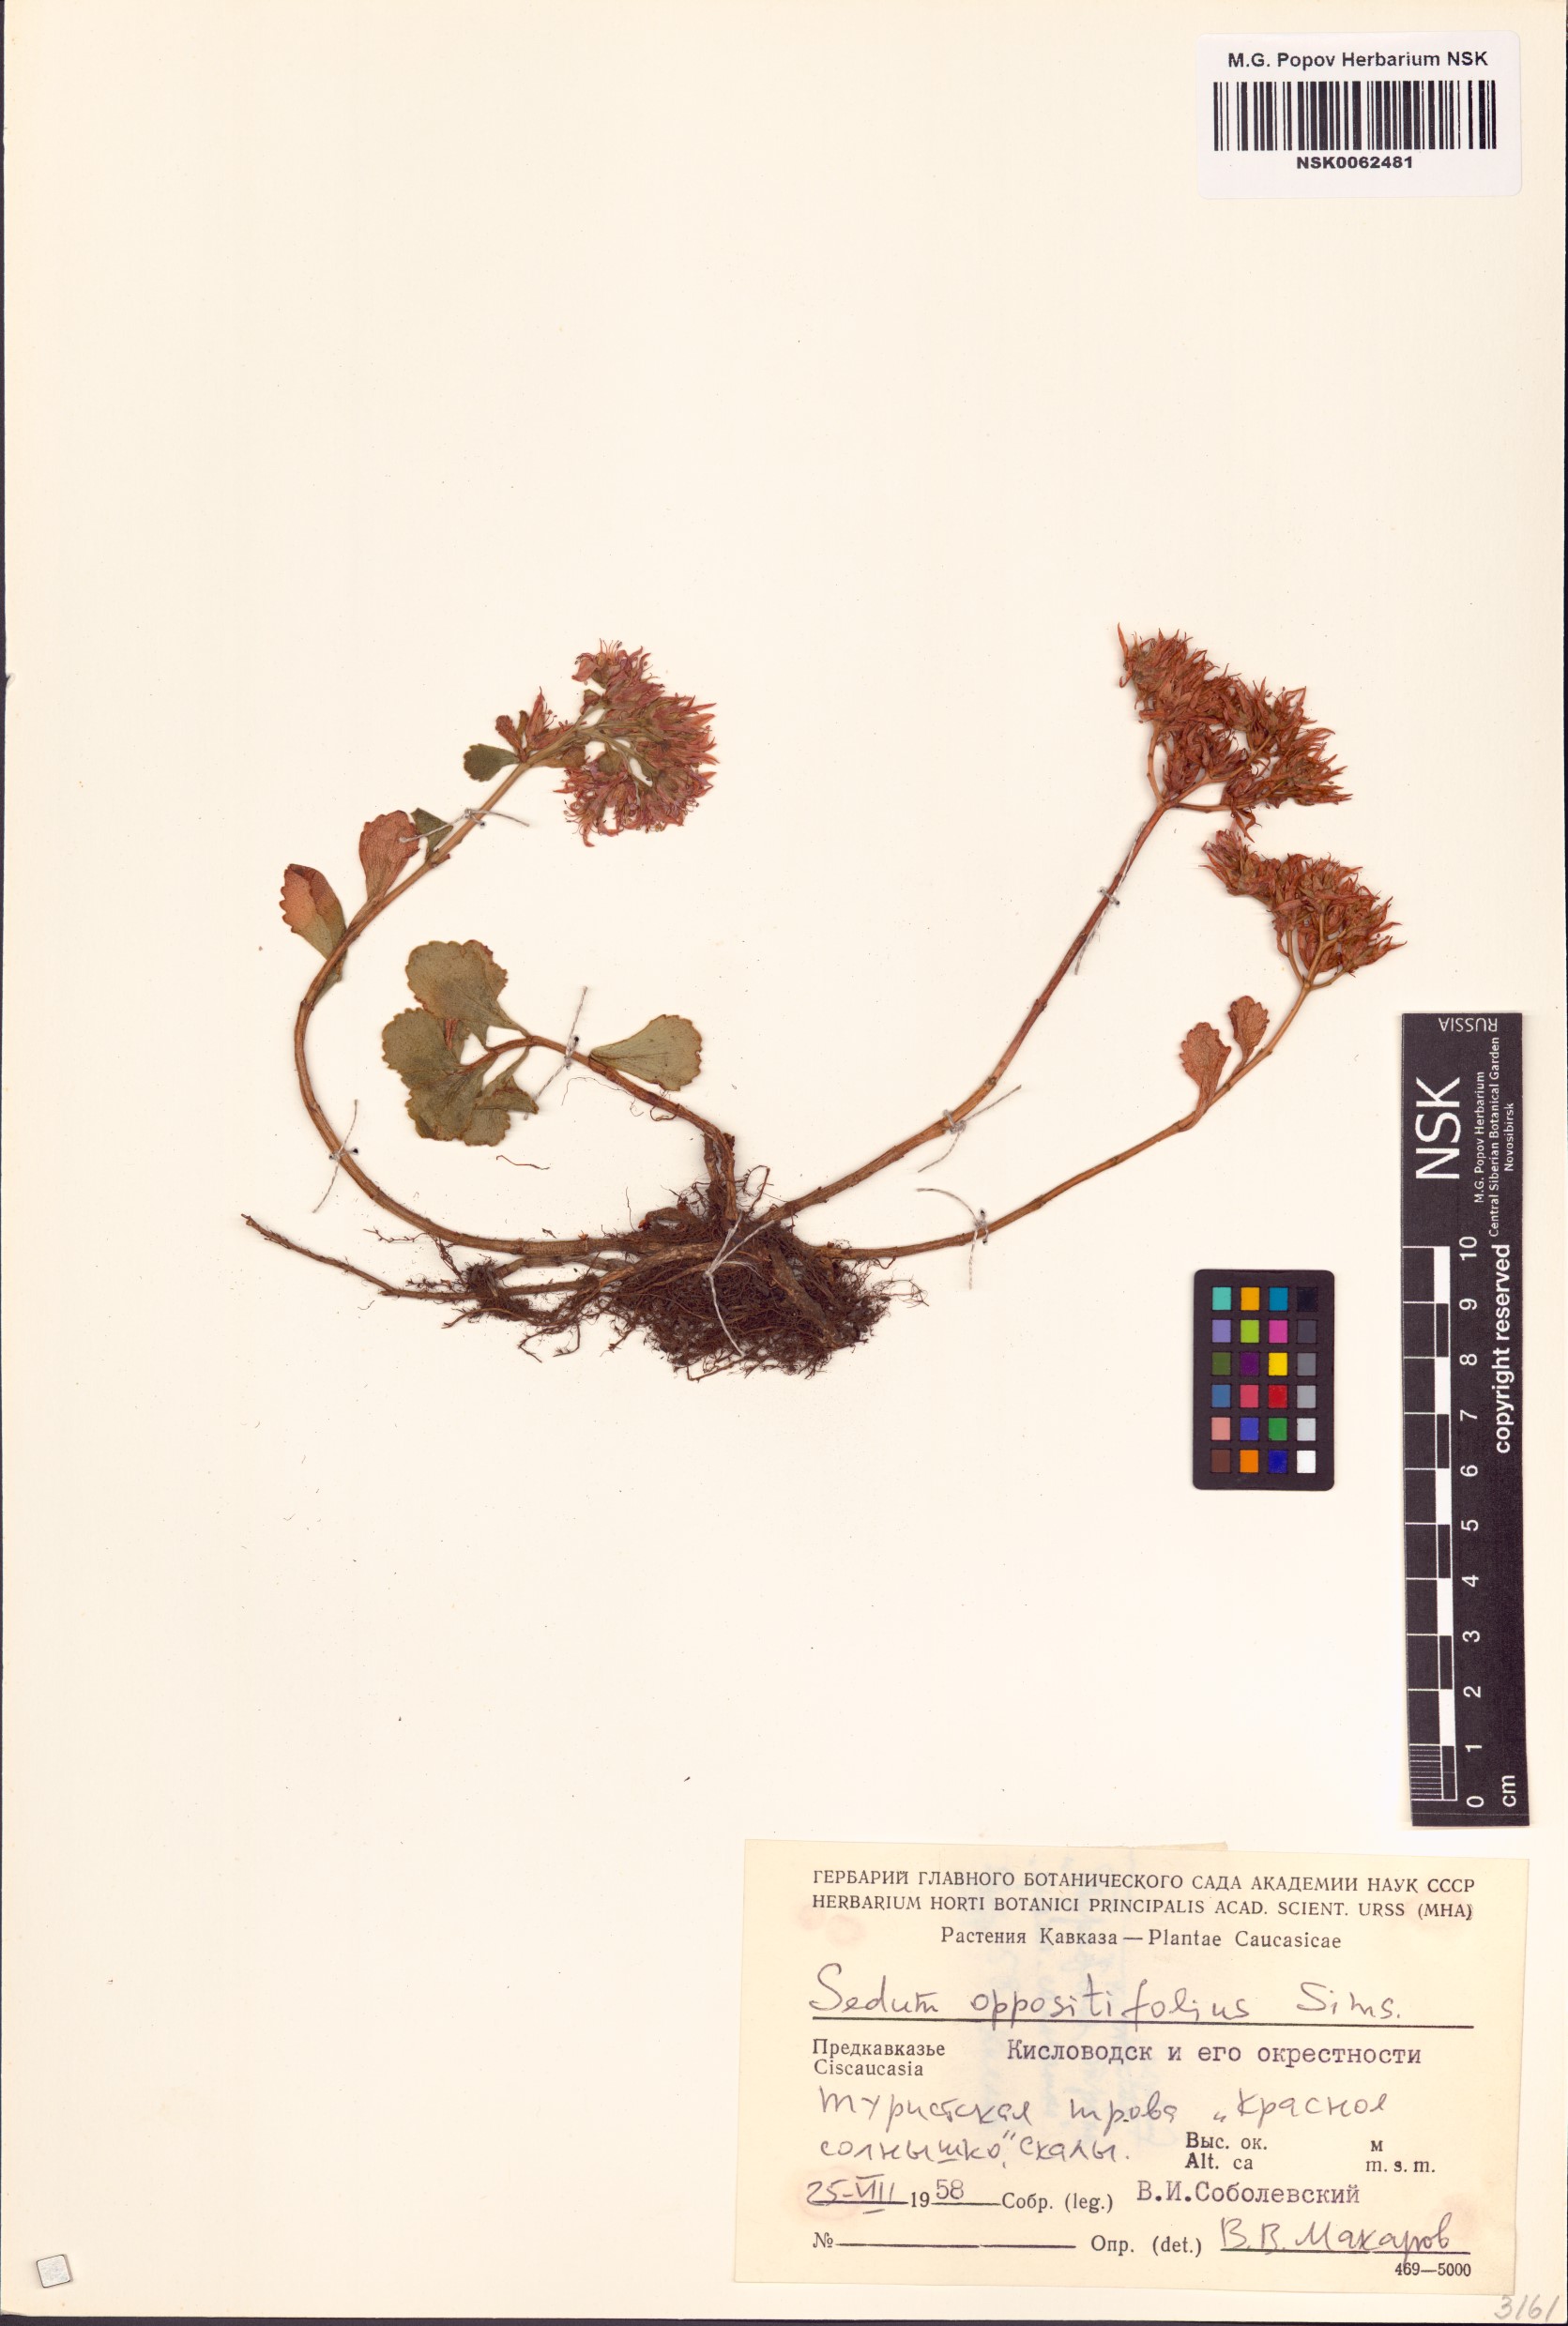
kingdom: Plantae
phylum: Tracheophyta
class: Magnoliopsida
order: Saxifragales
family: Crassulaceae
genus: Phedimus
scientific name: Phedimus spurius
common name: Caucasian stonecrop
